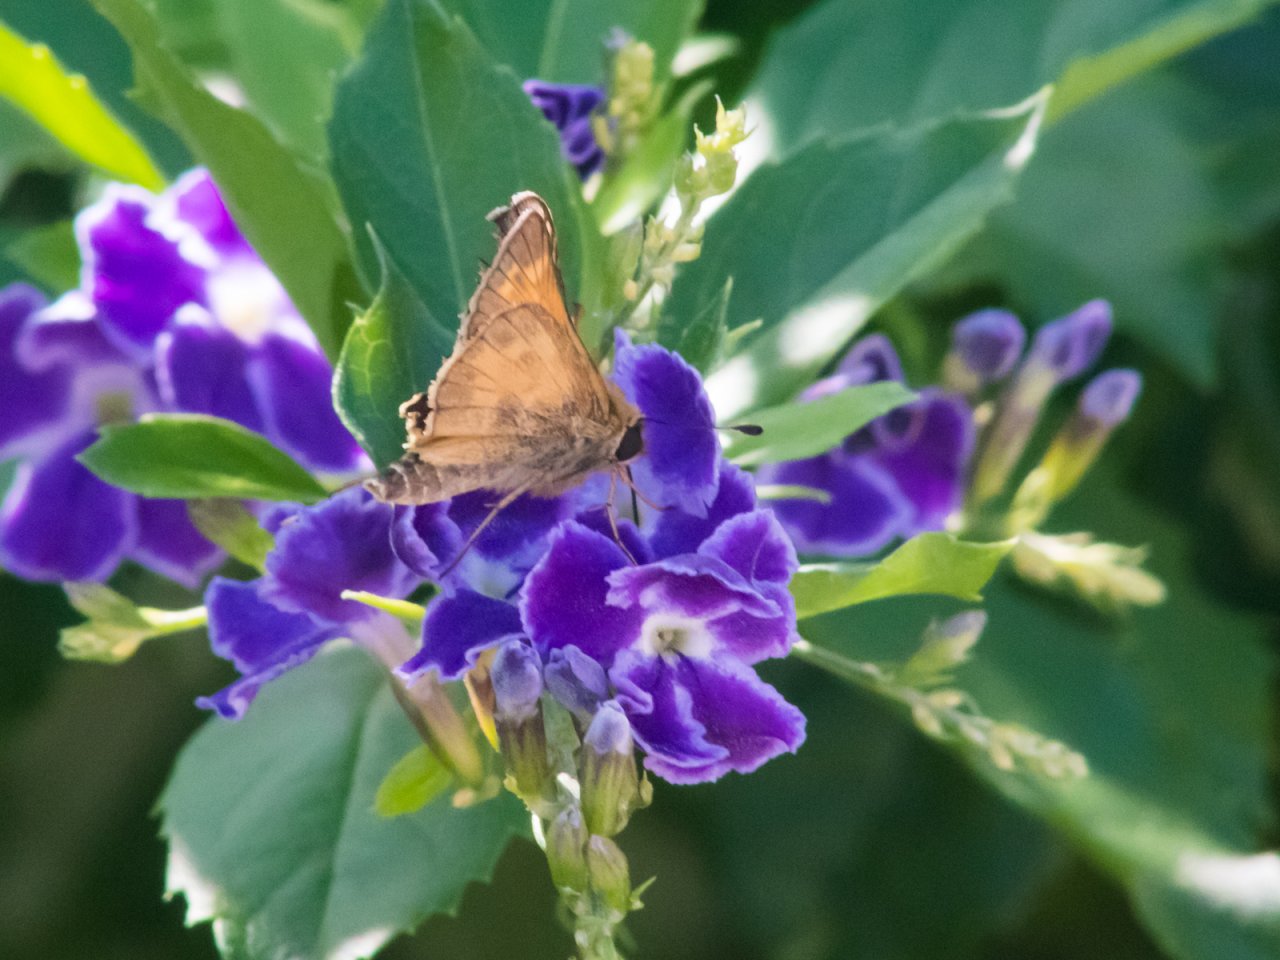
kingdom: Animalia
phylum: Arthropoda
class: Insecta
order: Lepidoptera
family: Hesperiidae
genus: Atalopedes
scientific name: Atalopedes campestris
